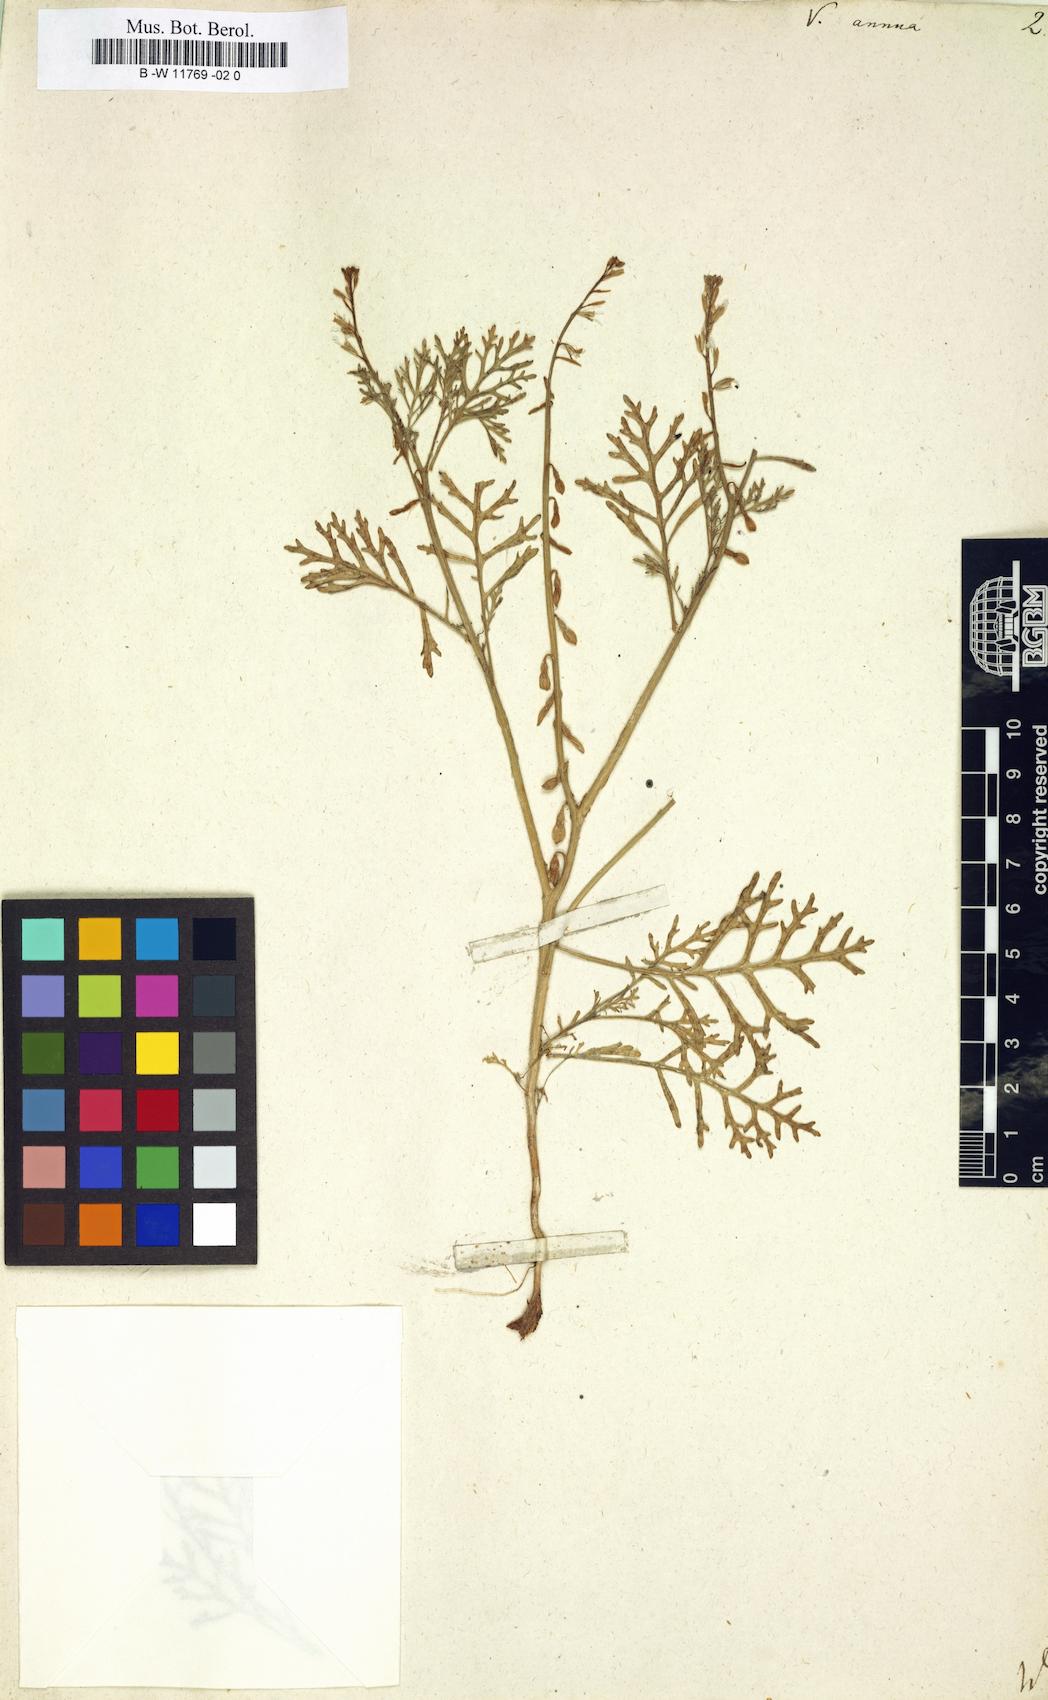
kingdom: Plantae
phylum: Tracheophyta
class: Magnoliopsida
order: Brassicales
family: Brassicaceae
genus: Carrichtera
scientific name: Carrichtera annua
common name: Cress rocket
